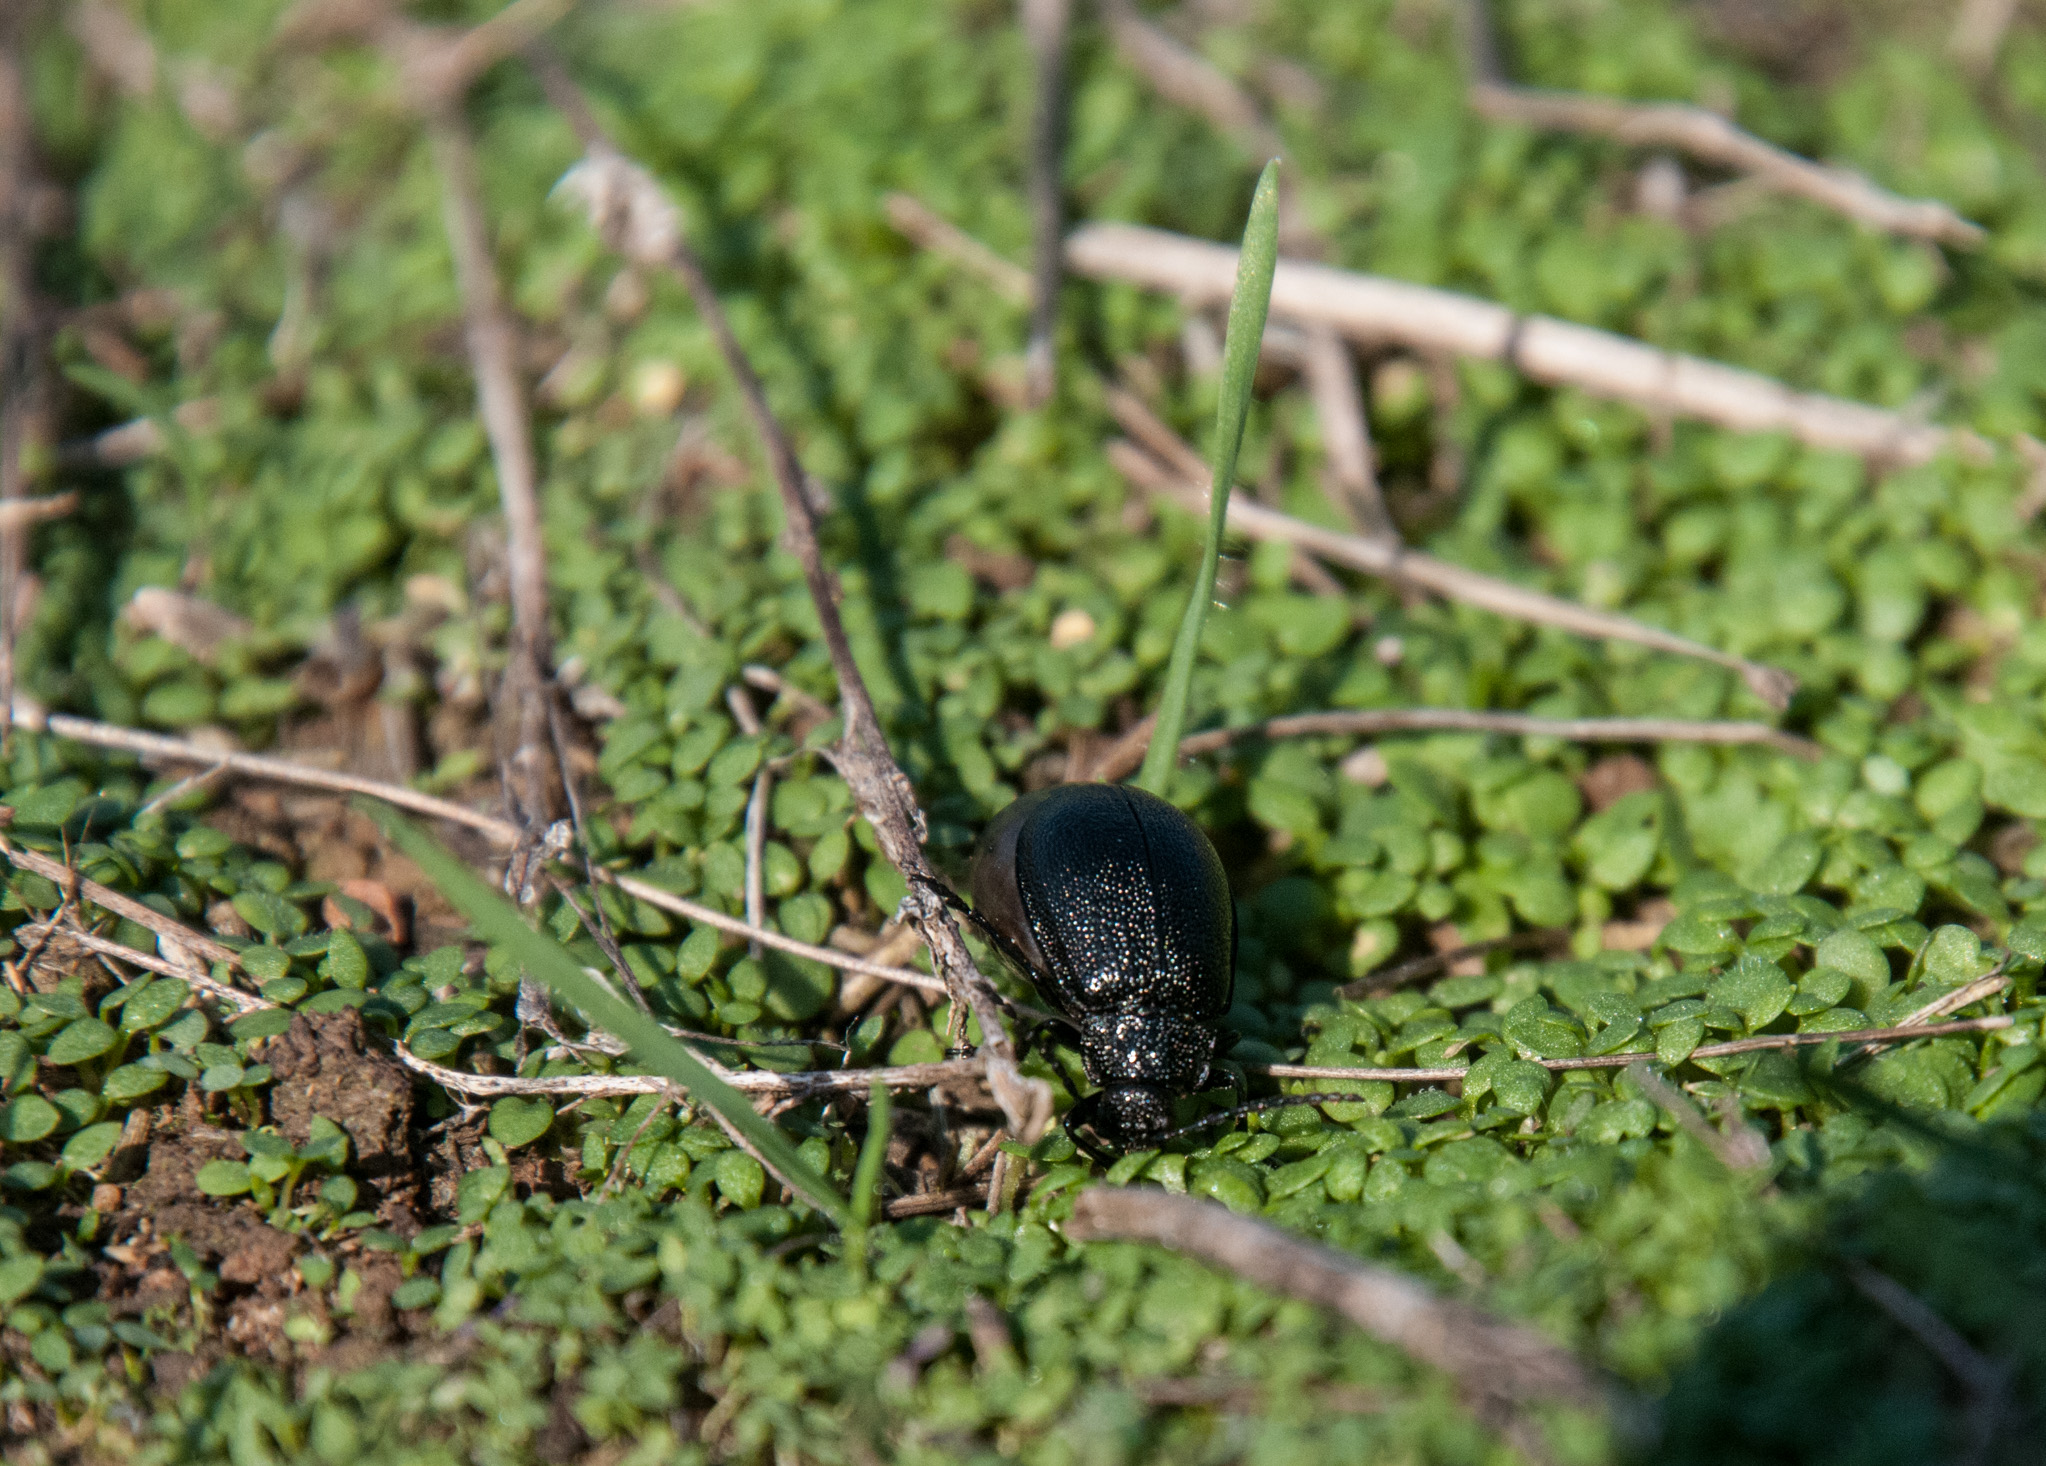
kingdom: Animalia
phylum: Arthropoda
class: Insecta
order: Coleoptera
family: Meloidae
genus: Meloe
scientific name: Meloe
